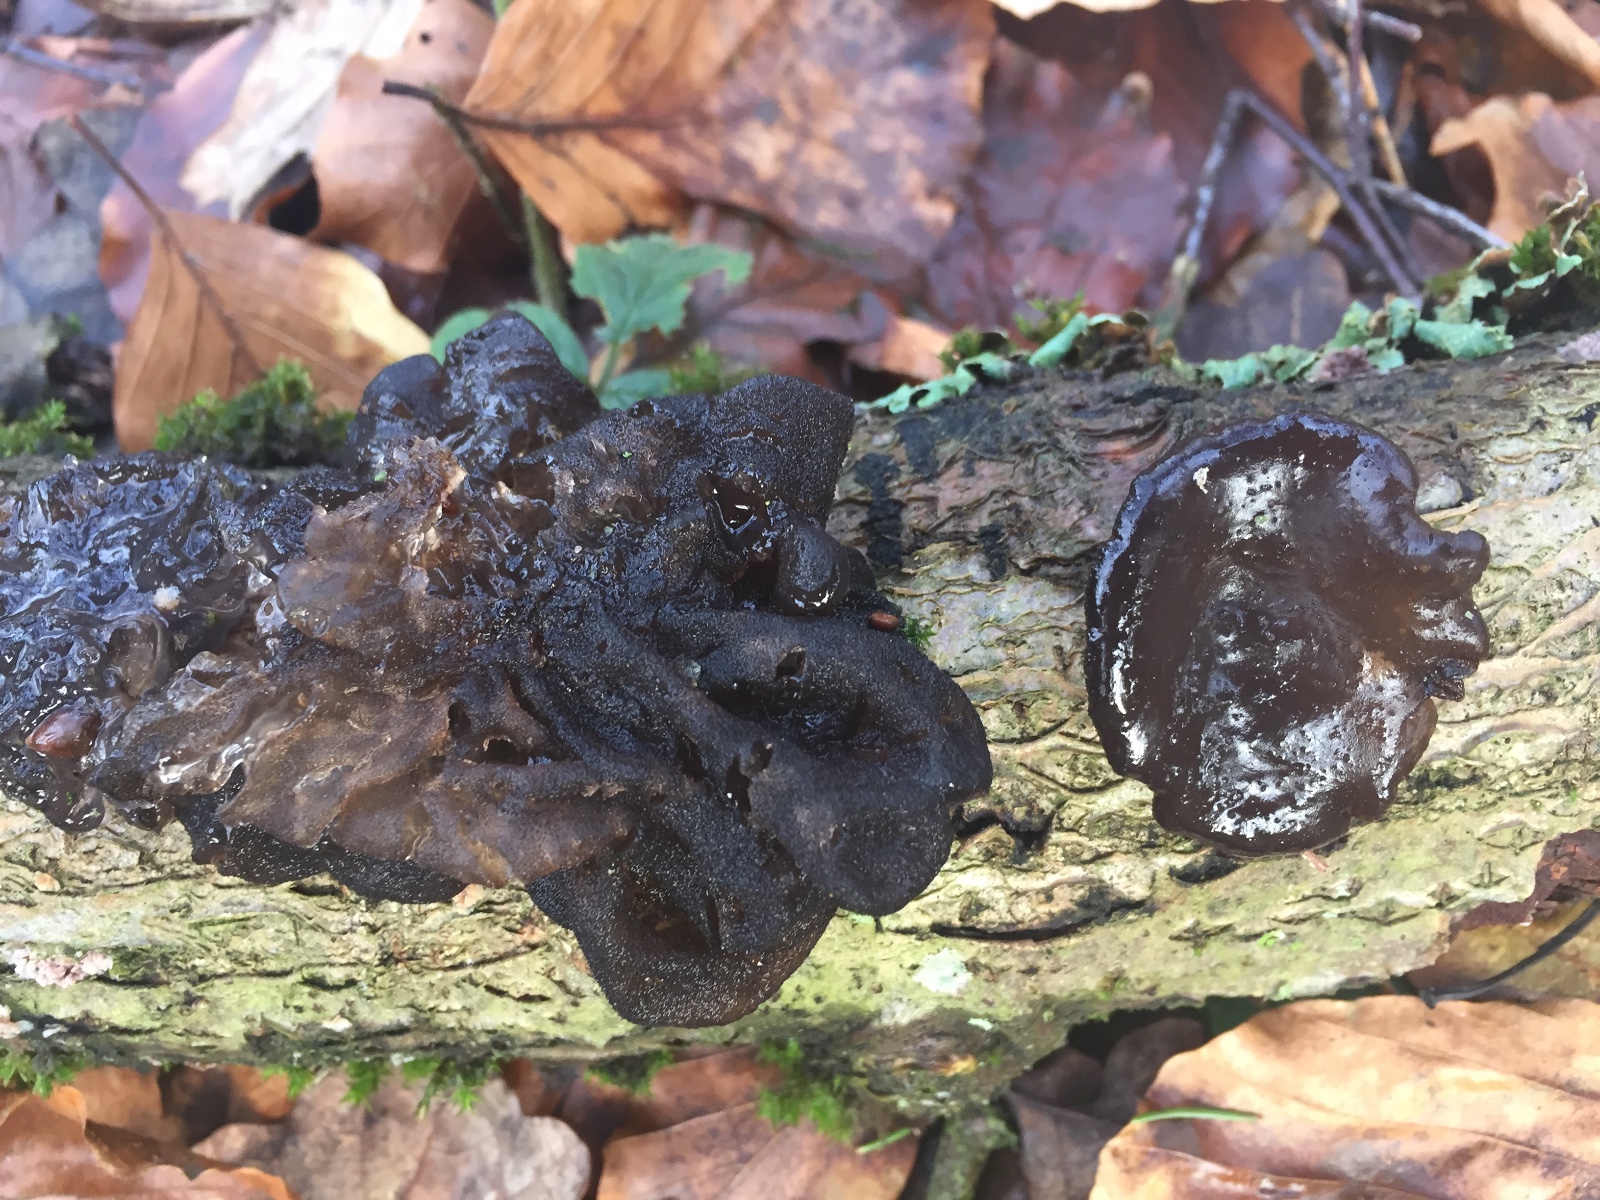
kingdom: Fungi
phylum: Basidiomycota
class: Agaricomycetes
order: Auriculariales
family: Auriculariaceae
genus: Exidia
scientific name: Exidia glandulosa
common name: ege-bævretop
